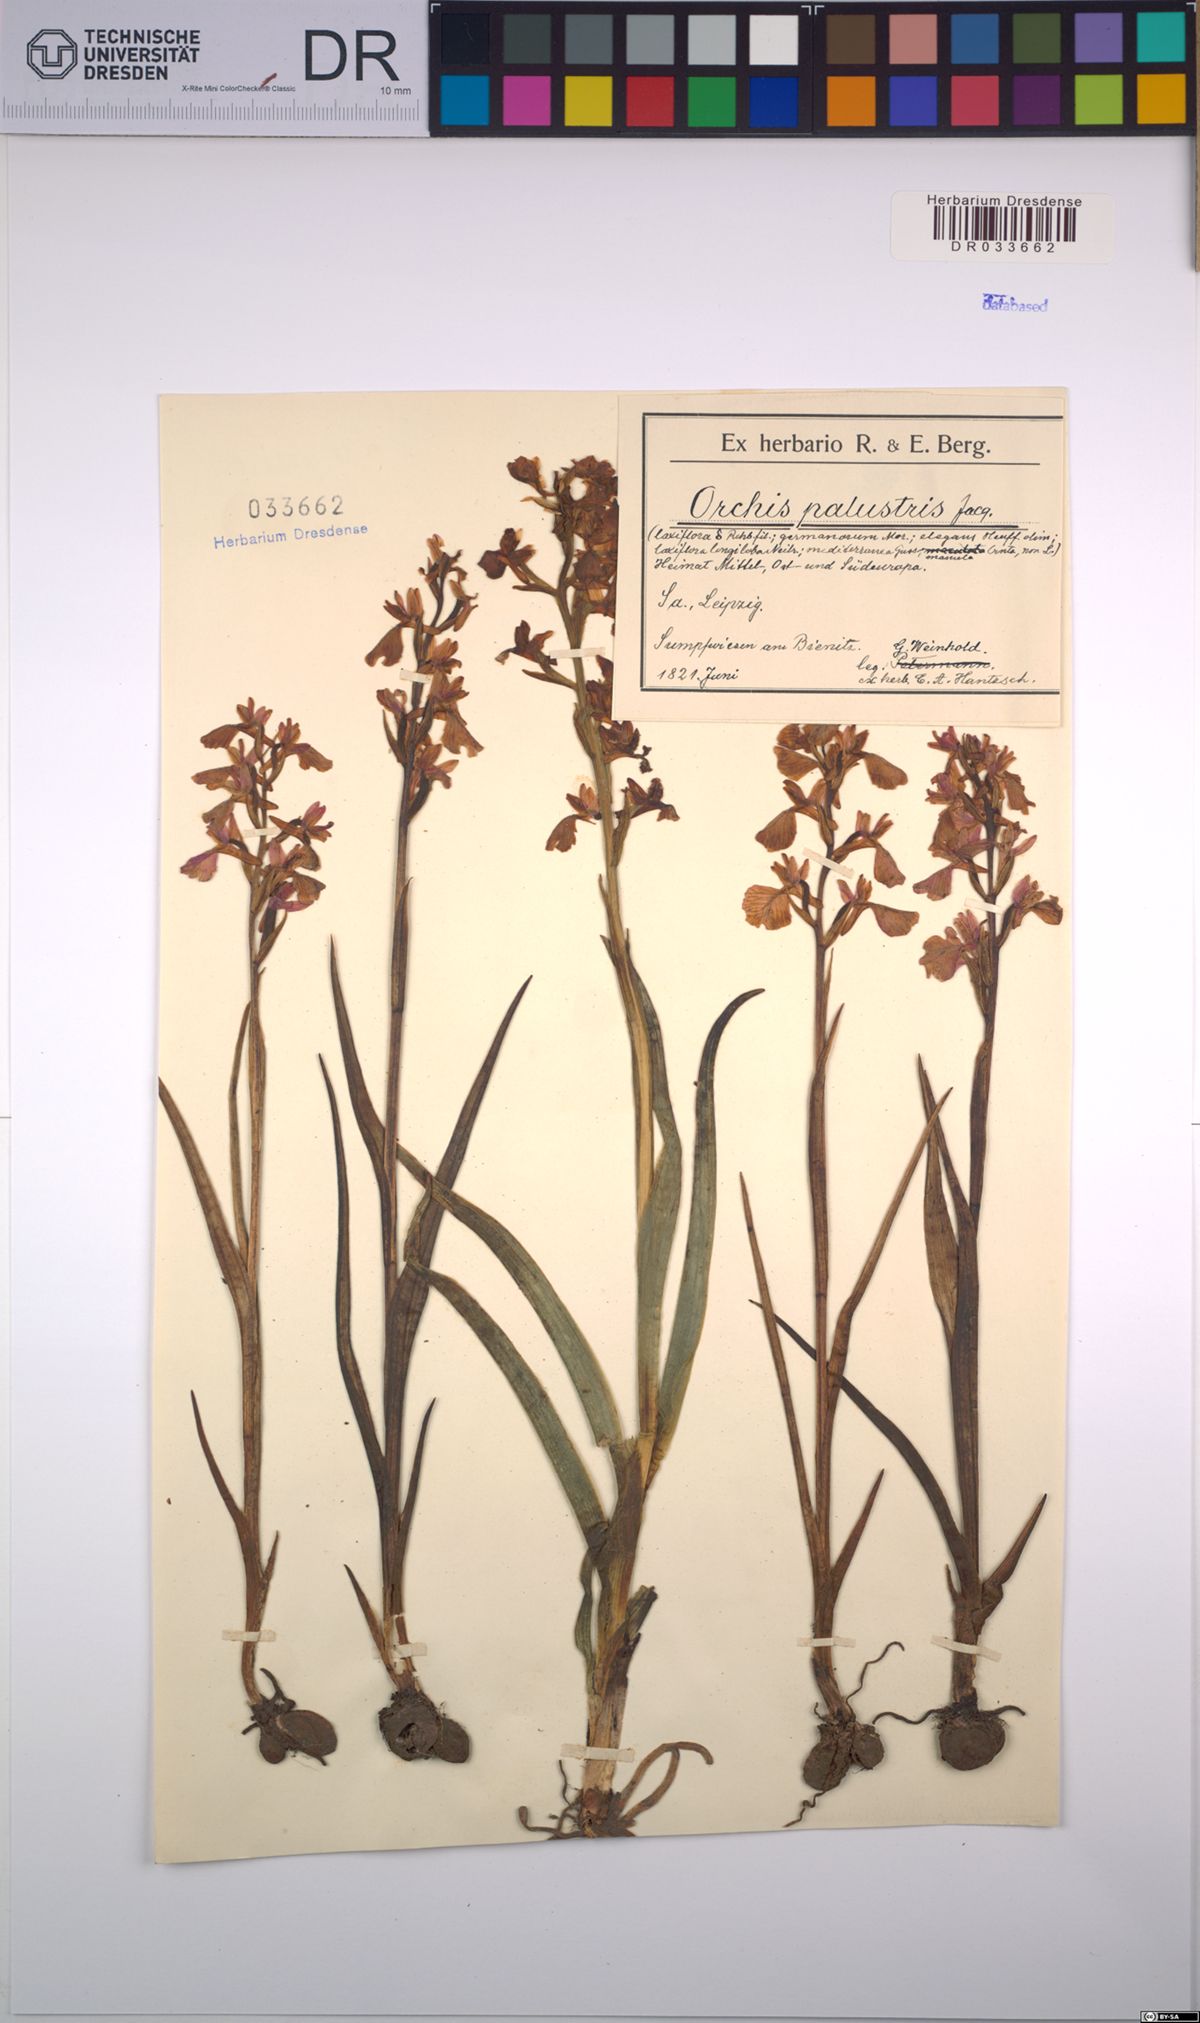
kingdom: Plantae
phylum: Tracheophyta
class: Liliopsida
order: Asparagales
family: Orchidaceae
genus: Anacamptis
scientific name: Anacamptis palustris
